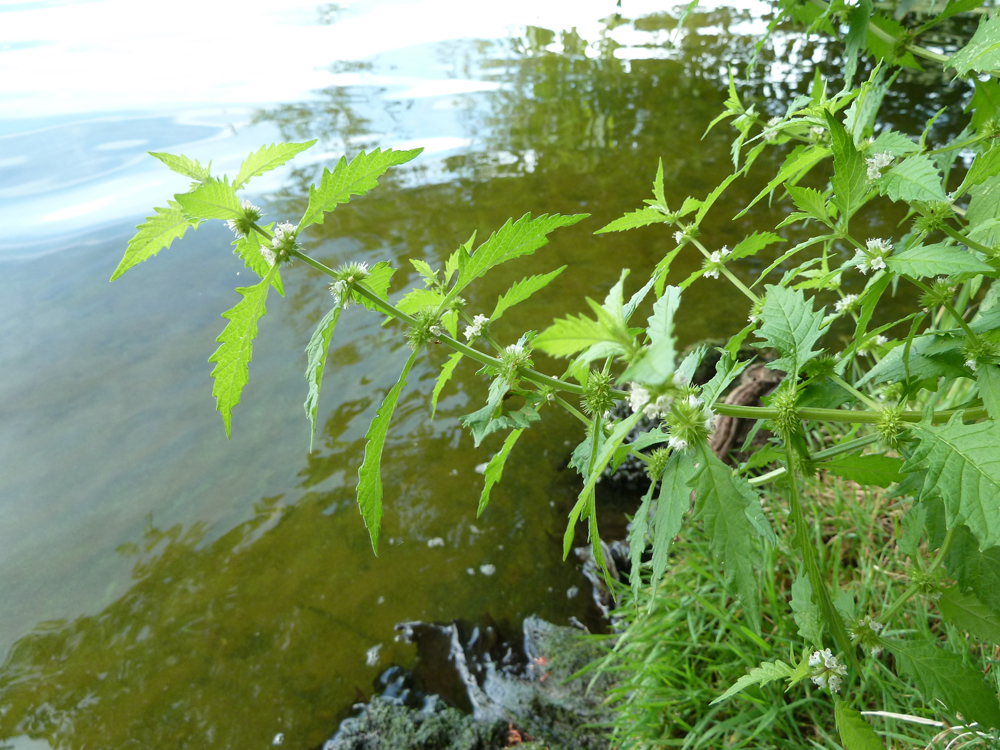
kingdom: Plantae
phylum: Tracheophyta
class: Magnoliopsida
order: Lamiales
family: Lamiaceae
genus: Lycopus
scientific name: Lycopus europaeus
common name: European bugleweed
